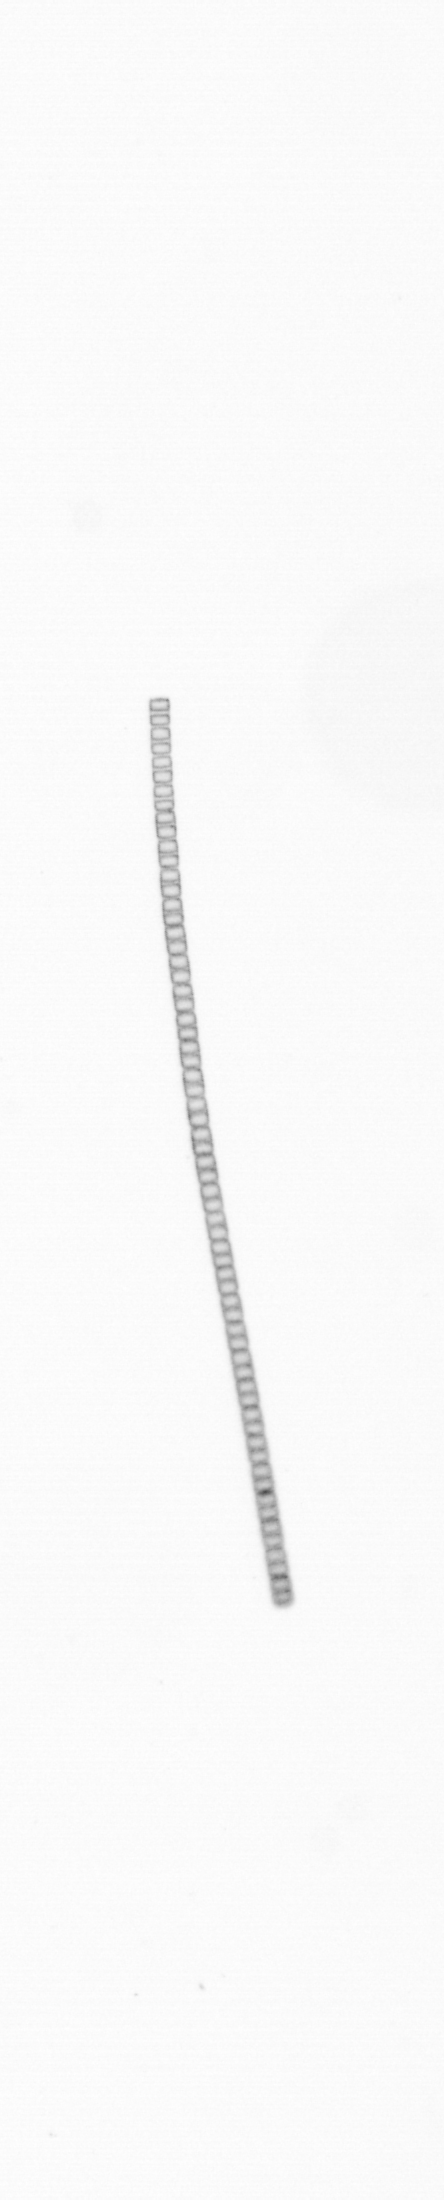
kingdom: Chromista
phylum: Ochrophyta
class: Bacillariophyceae
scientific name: Bacillariophyceae
